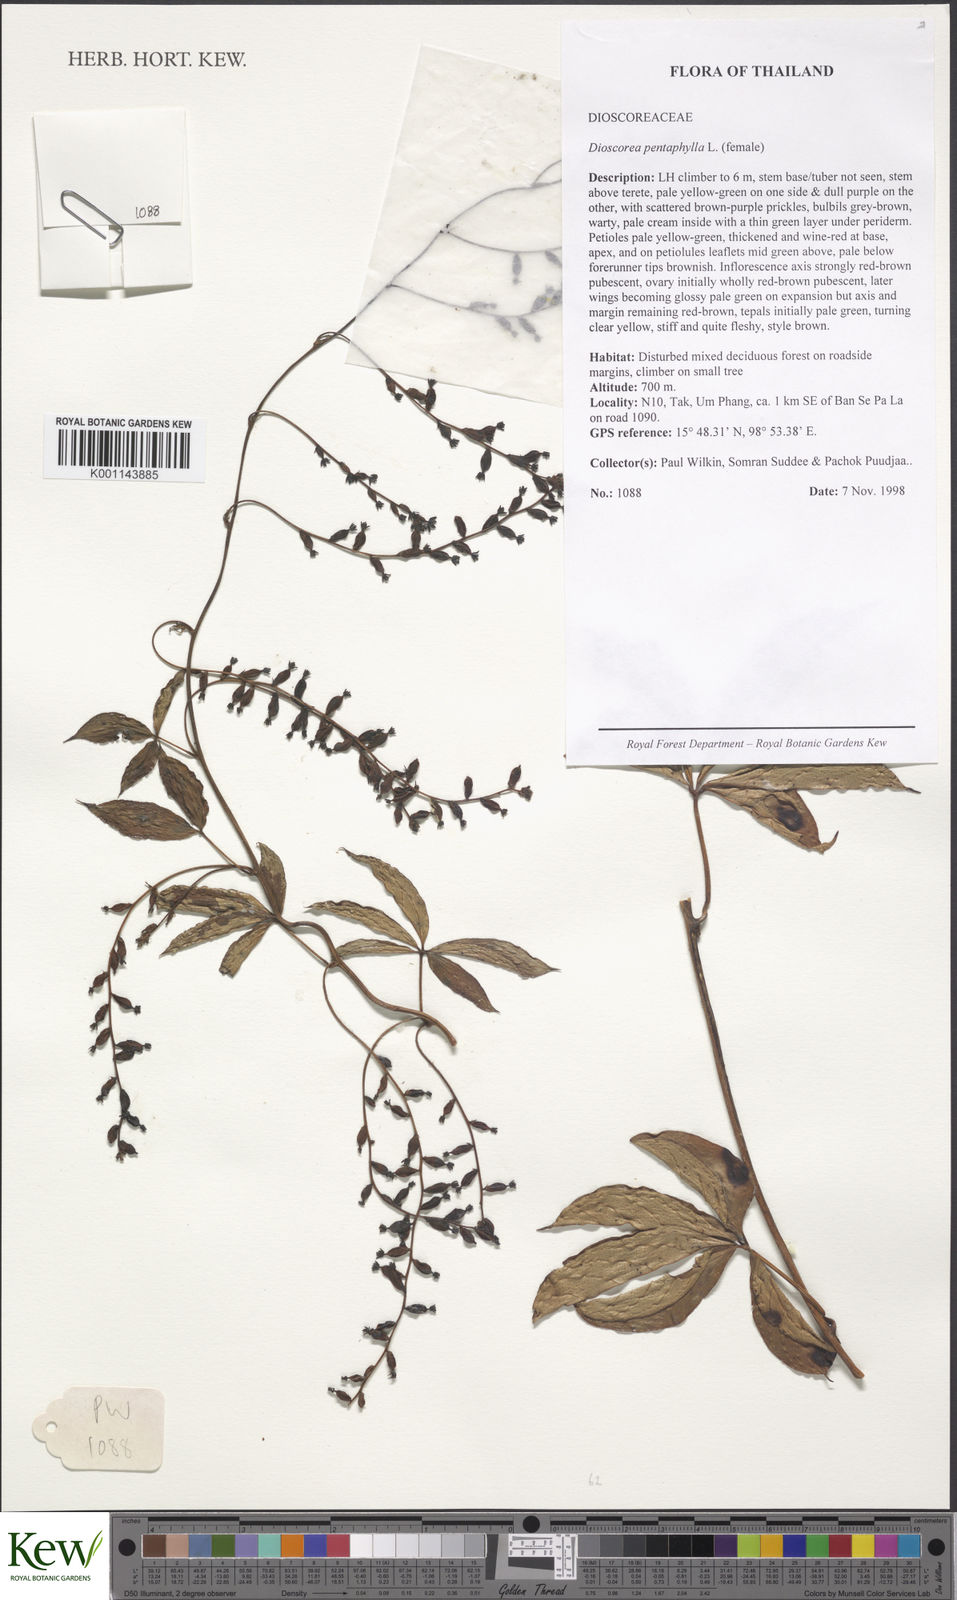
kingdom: Plantae
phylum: Tracheophyta
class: Liliopsida
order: Dioscoreales
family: Dioscoreaceae
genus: Dioscorea
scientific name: Dioscorea pentaphylla
